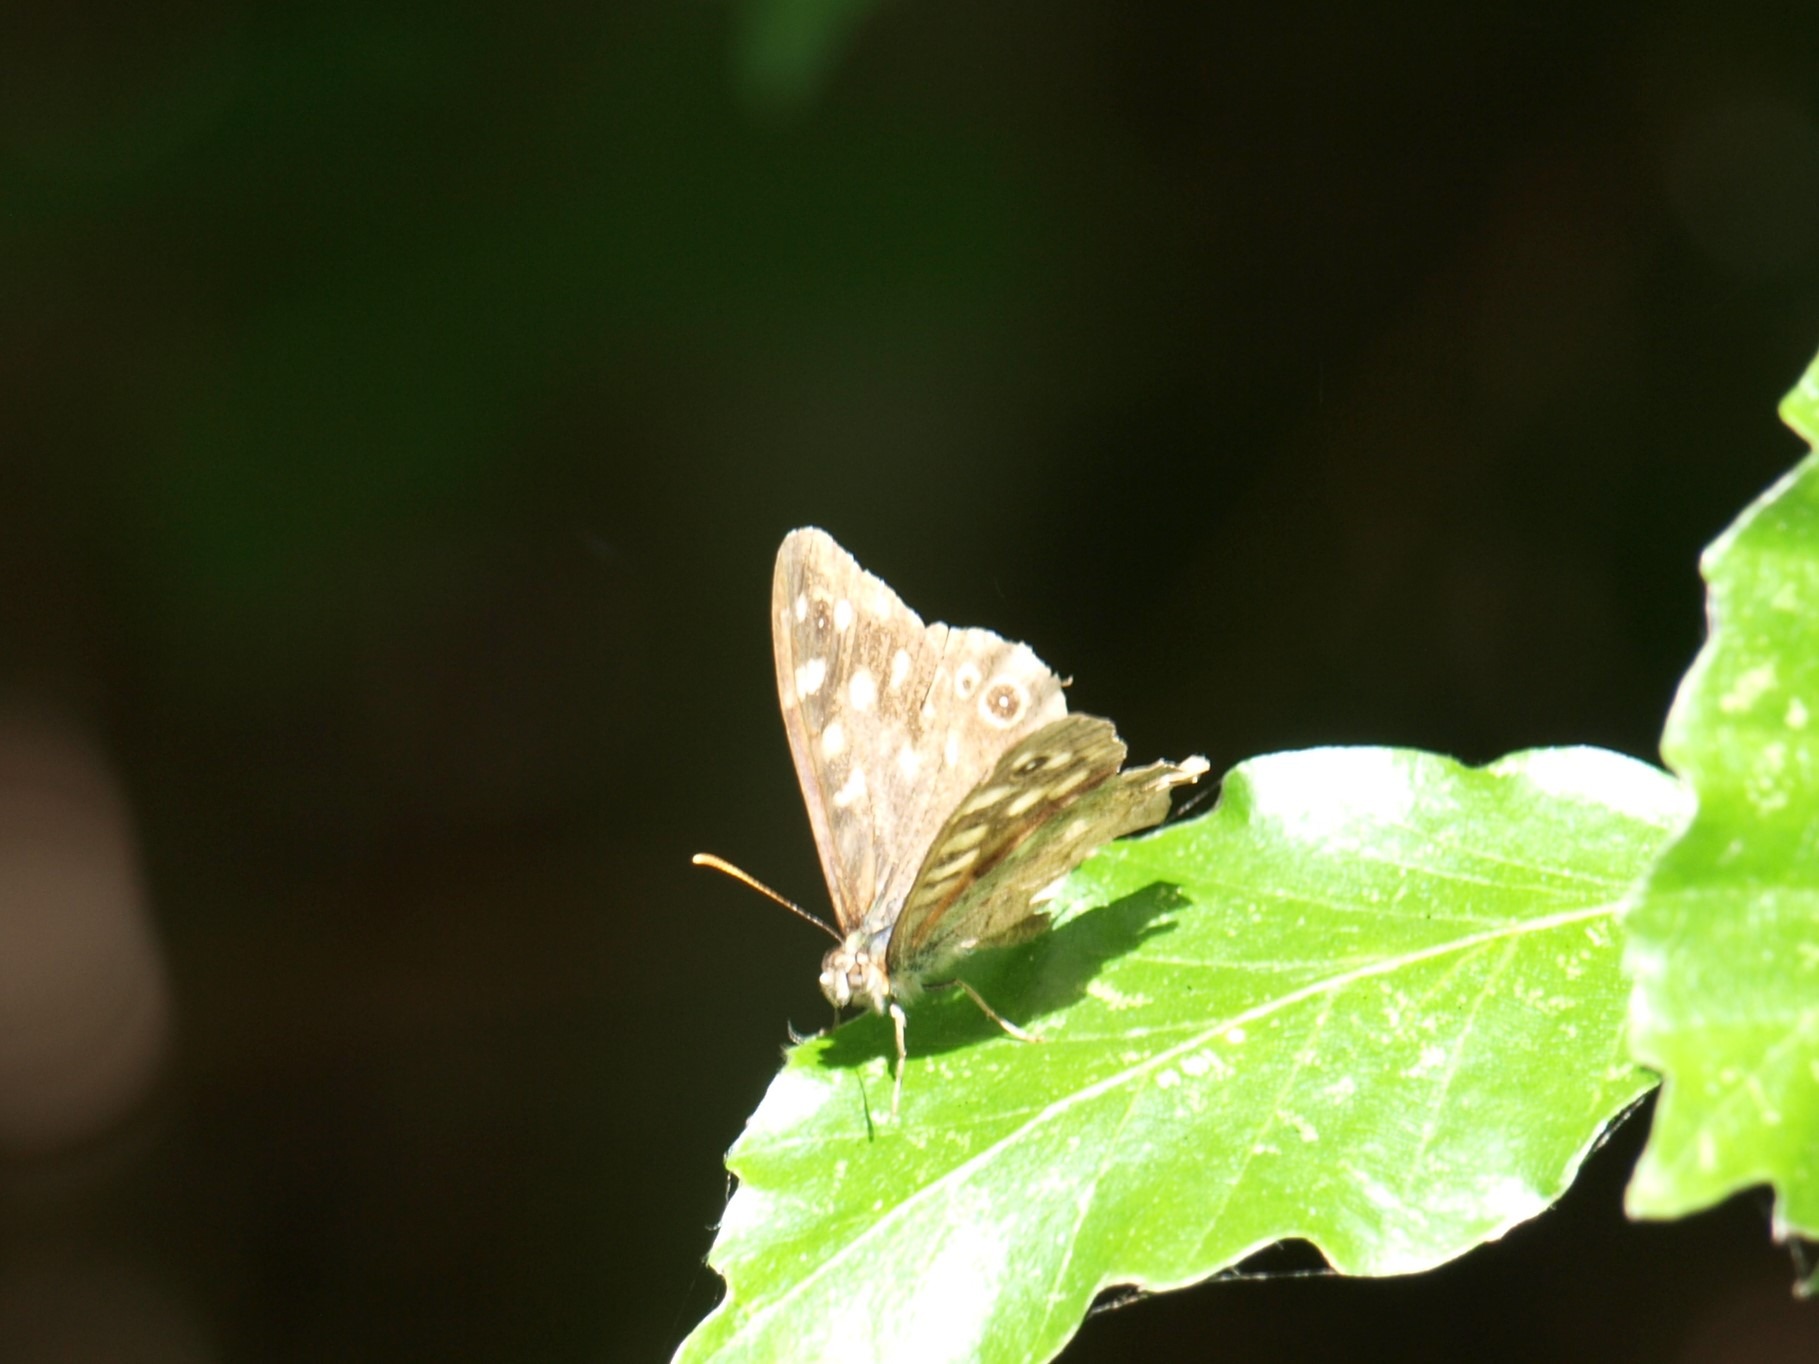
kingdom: Animalia
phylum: Arthropoda
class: Insecta
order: Lepidoptera
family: Nymphalidae
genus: Pararge
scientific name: Pararge aegeria
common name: Skovrandøje
